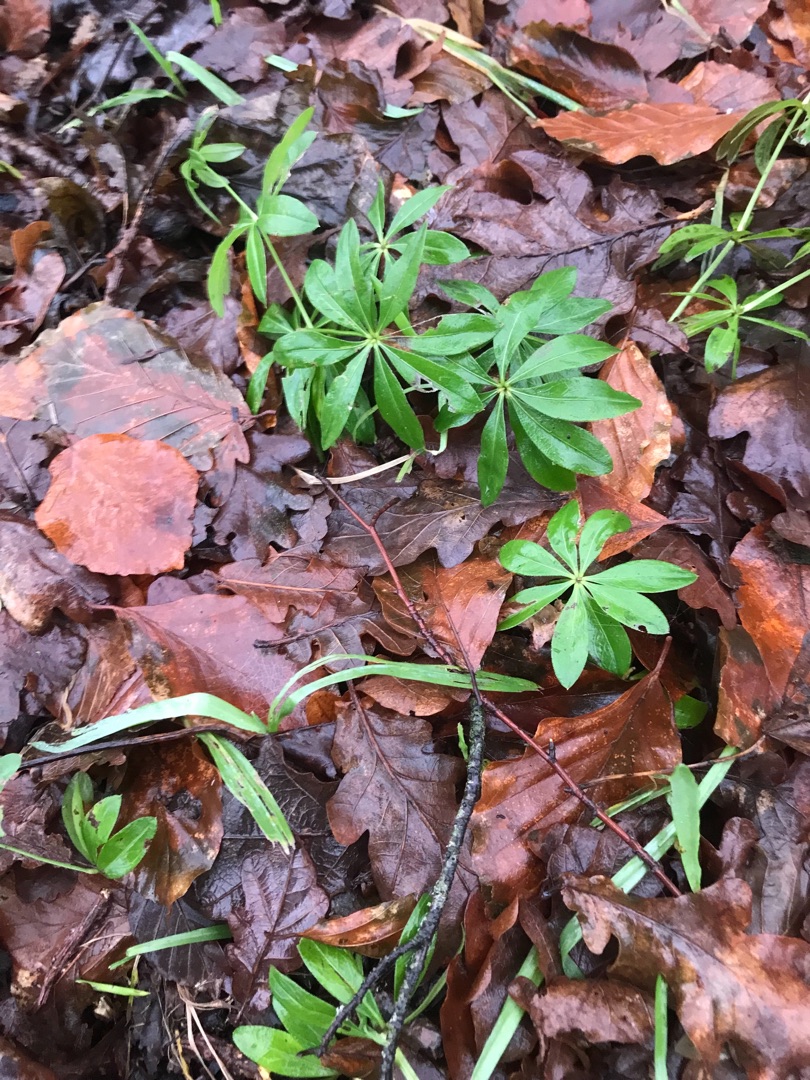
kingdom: Plantae
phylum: Tracheophyta
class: Magnoliopsida
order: Gentianales
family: Rubiaceae
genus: Galium
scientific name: Galium odoratum
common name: Skovmærke
